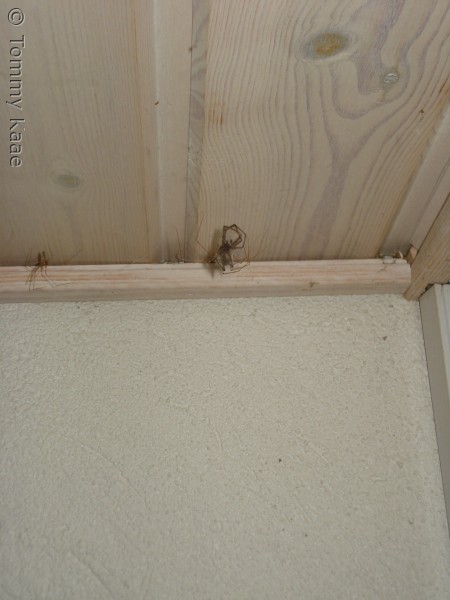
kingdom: Animalia
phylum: Arthropoda
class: Arachnida
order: Araneae
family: Pholcidae
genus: Pholcus
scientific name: Pholcus phalangioides
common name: Mejeredderkop
